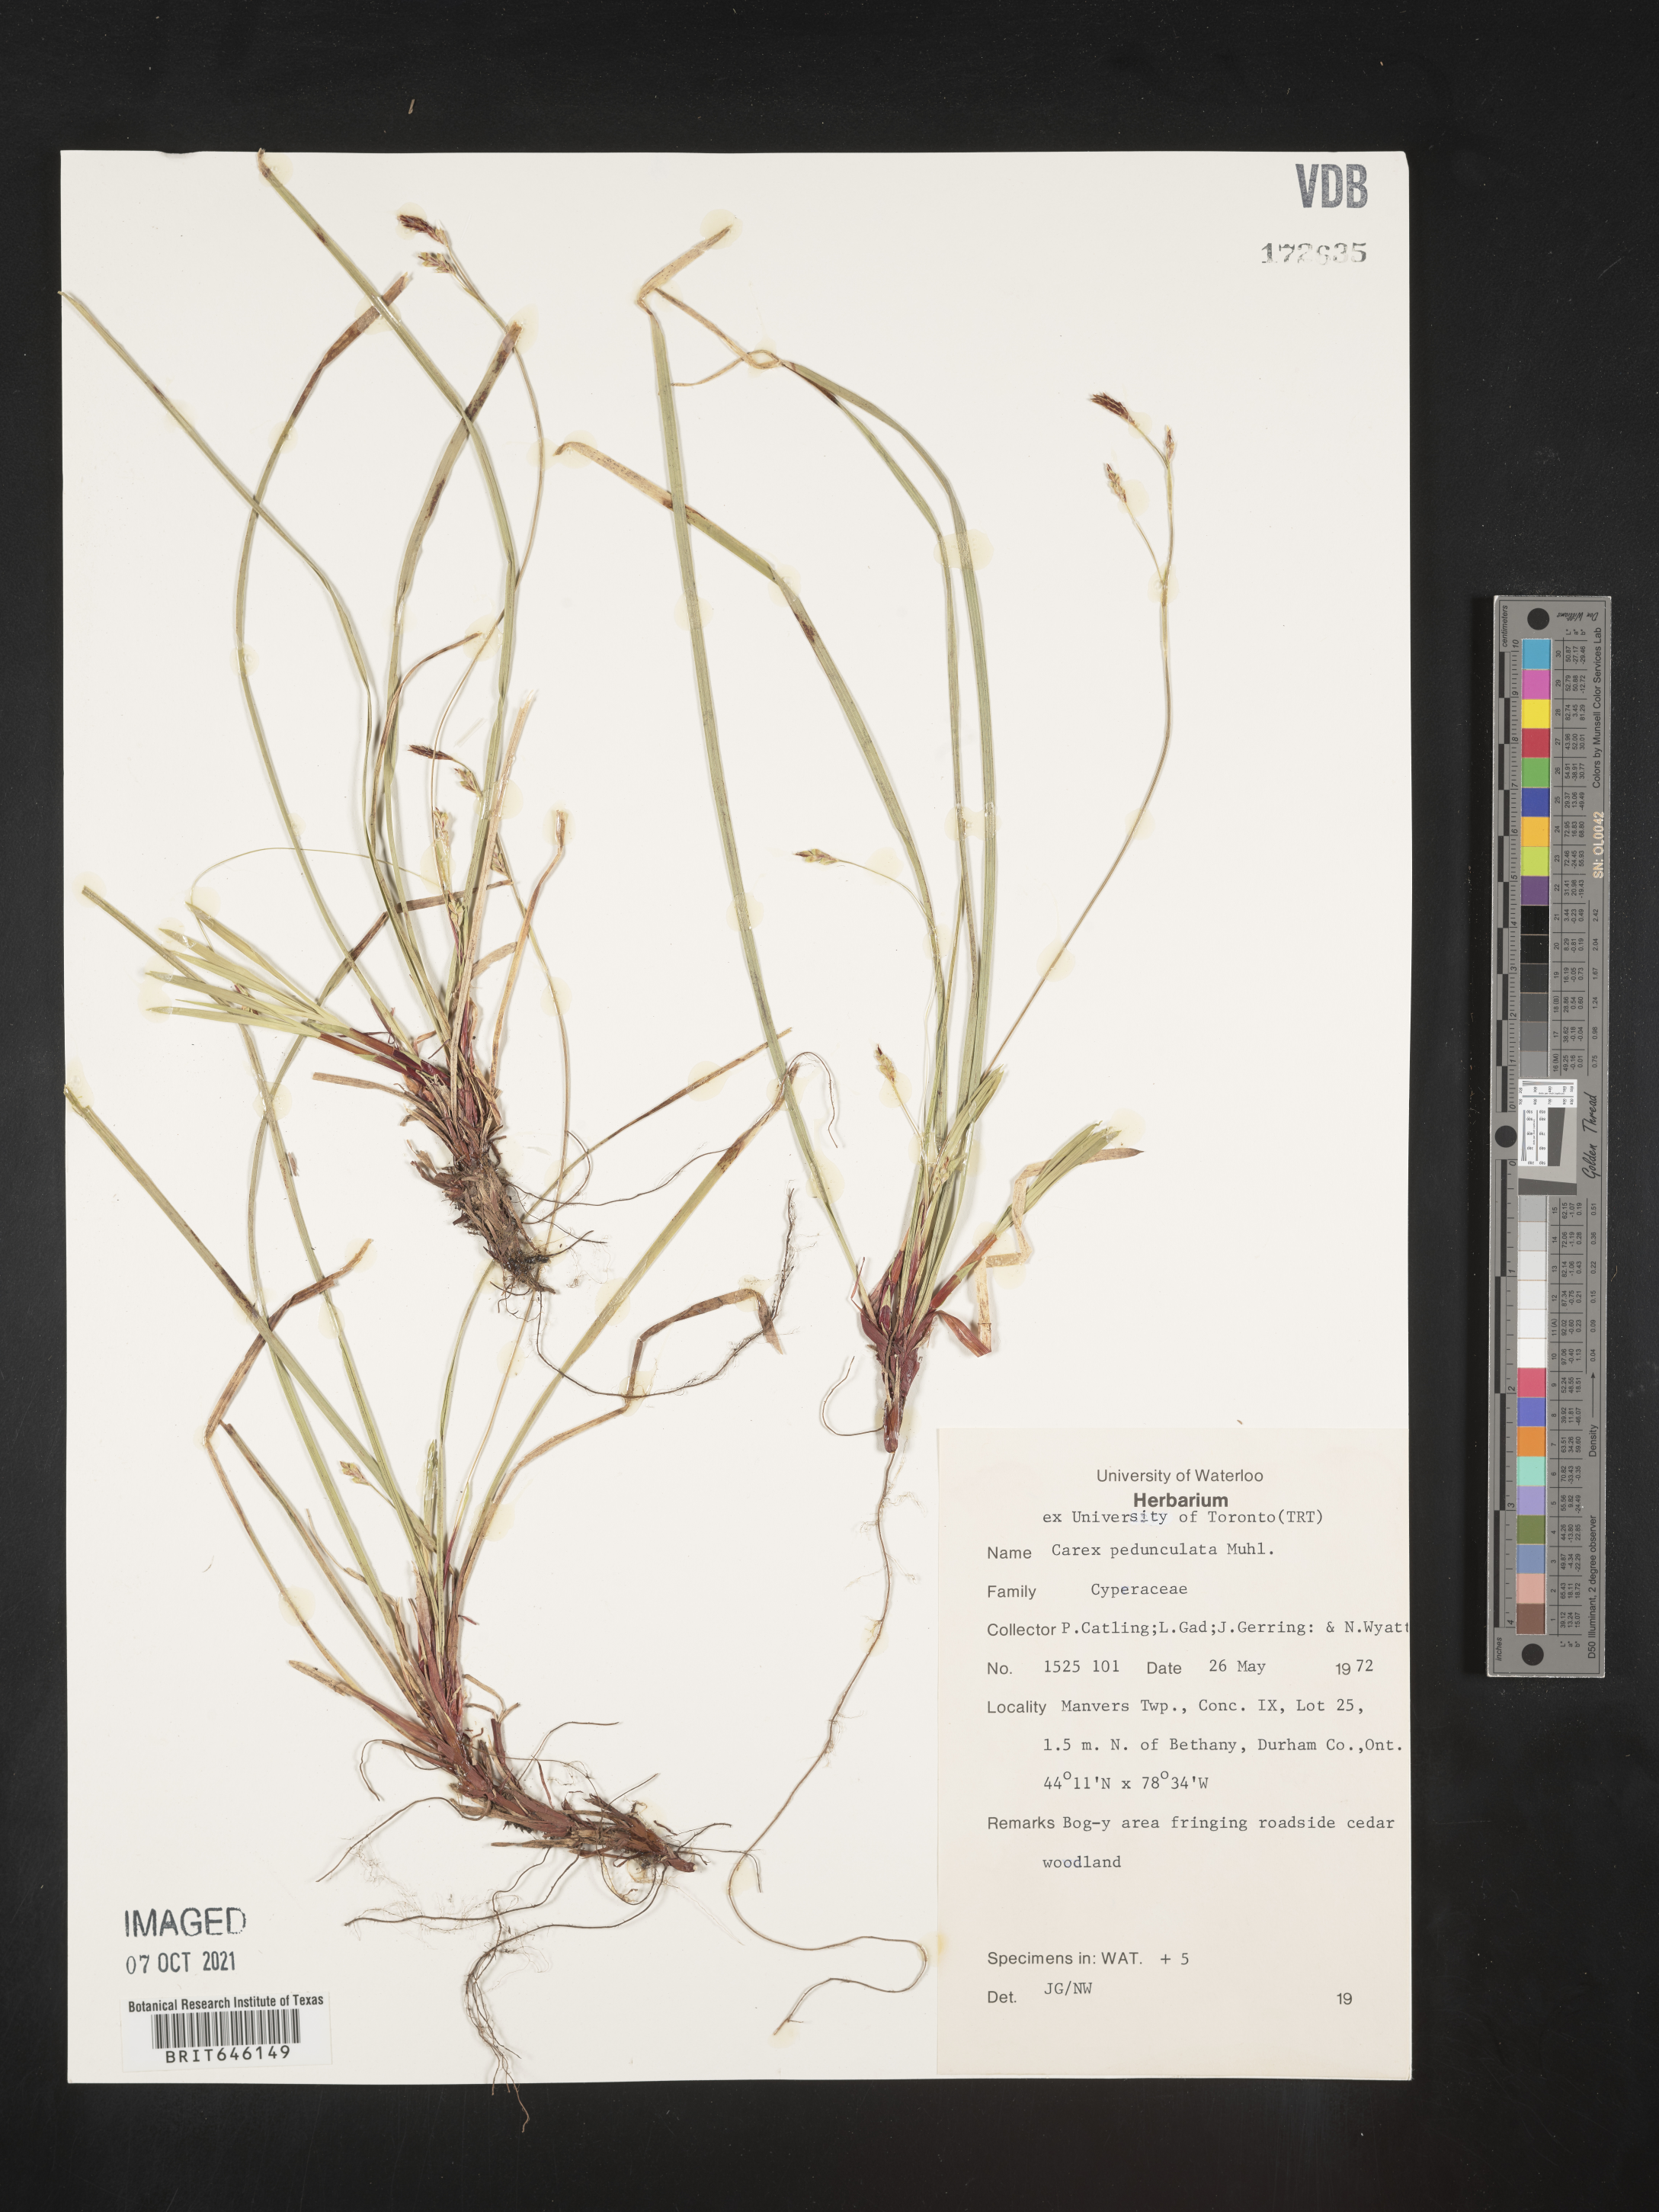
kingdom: Plantae
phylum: Tracheophyta
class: Liliopsida
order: Poales
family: Cyperaceae
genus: Carex
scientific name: Carex pedunculata
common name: Pedunculate sedge
